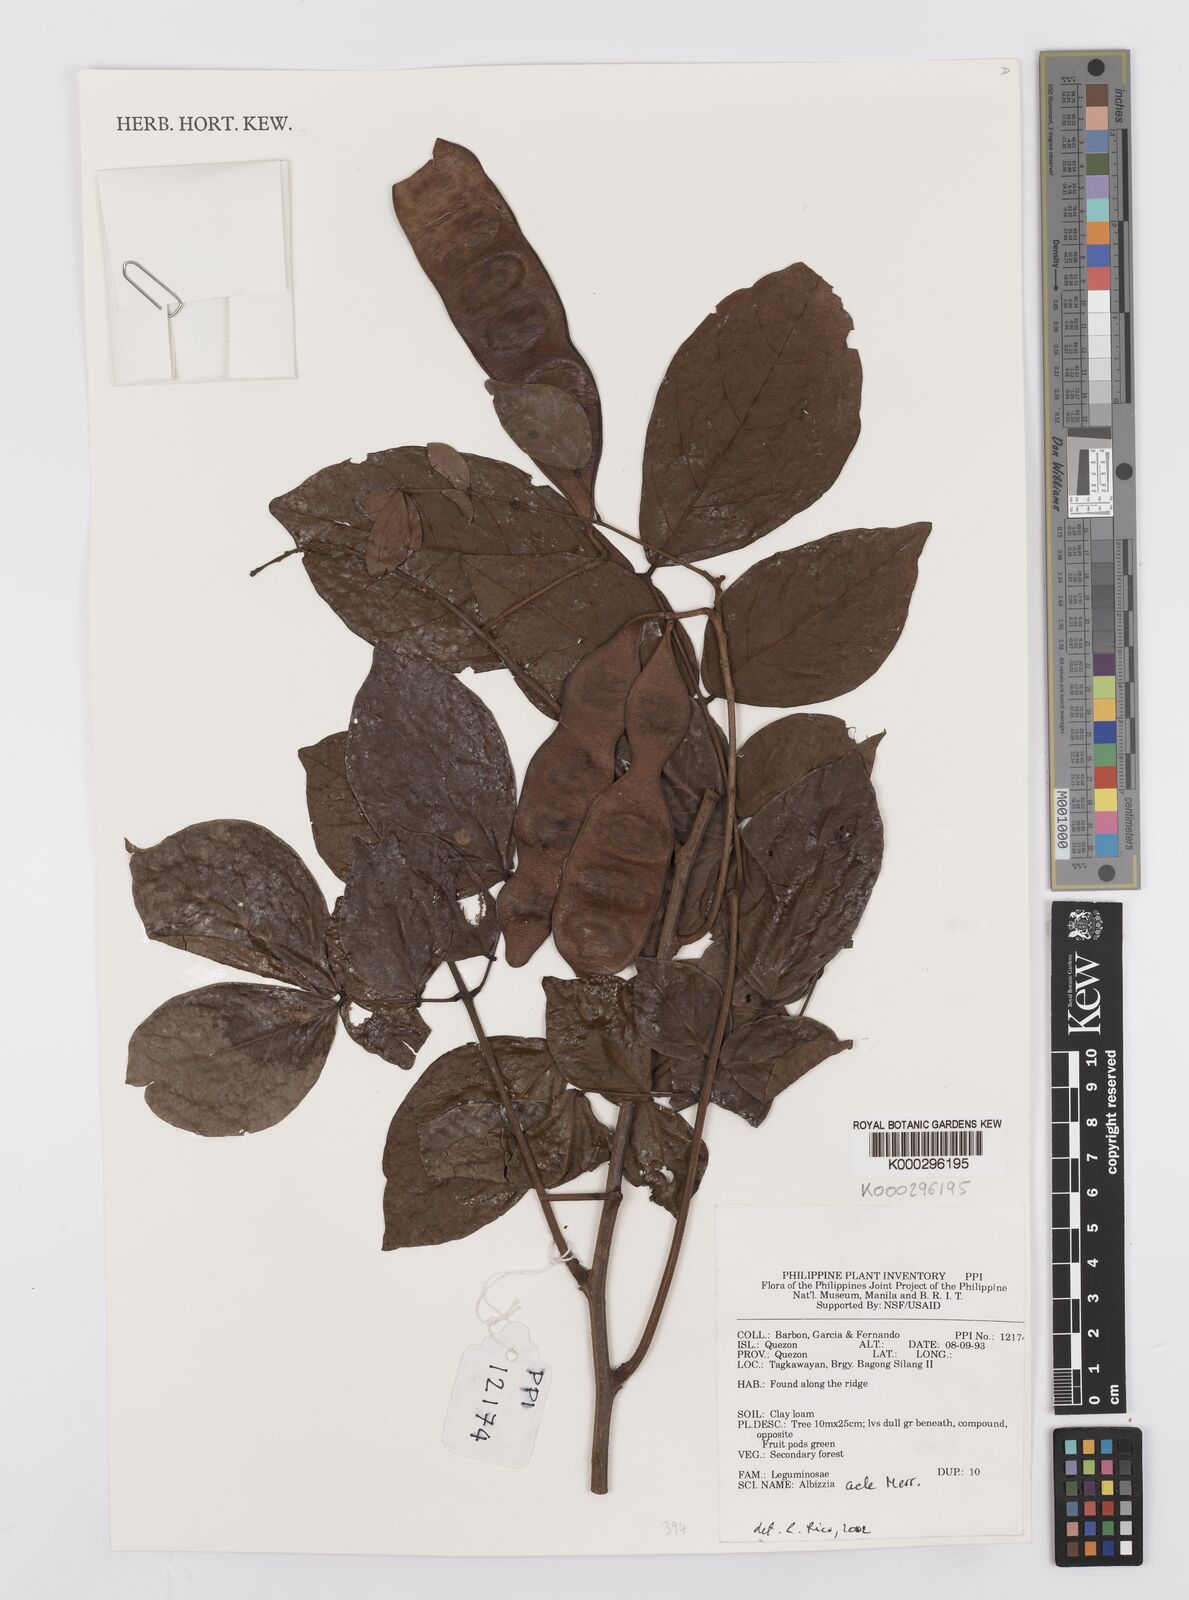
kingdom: Plantae
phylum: Tracheophyta
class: Magnoliopsida
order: Fabales
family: Fabaceae
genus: Albizia
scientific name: Albizia acle
